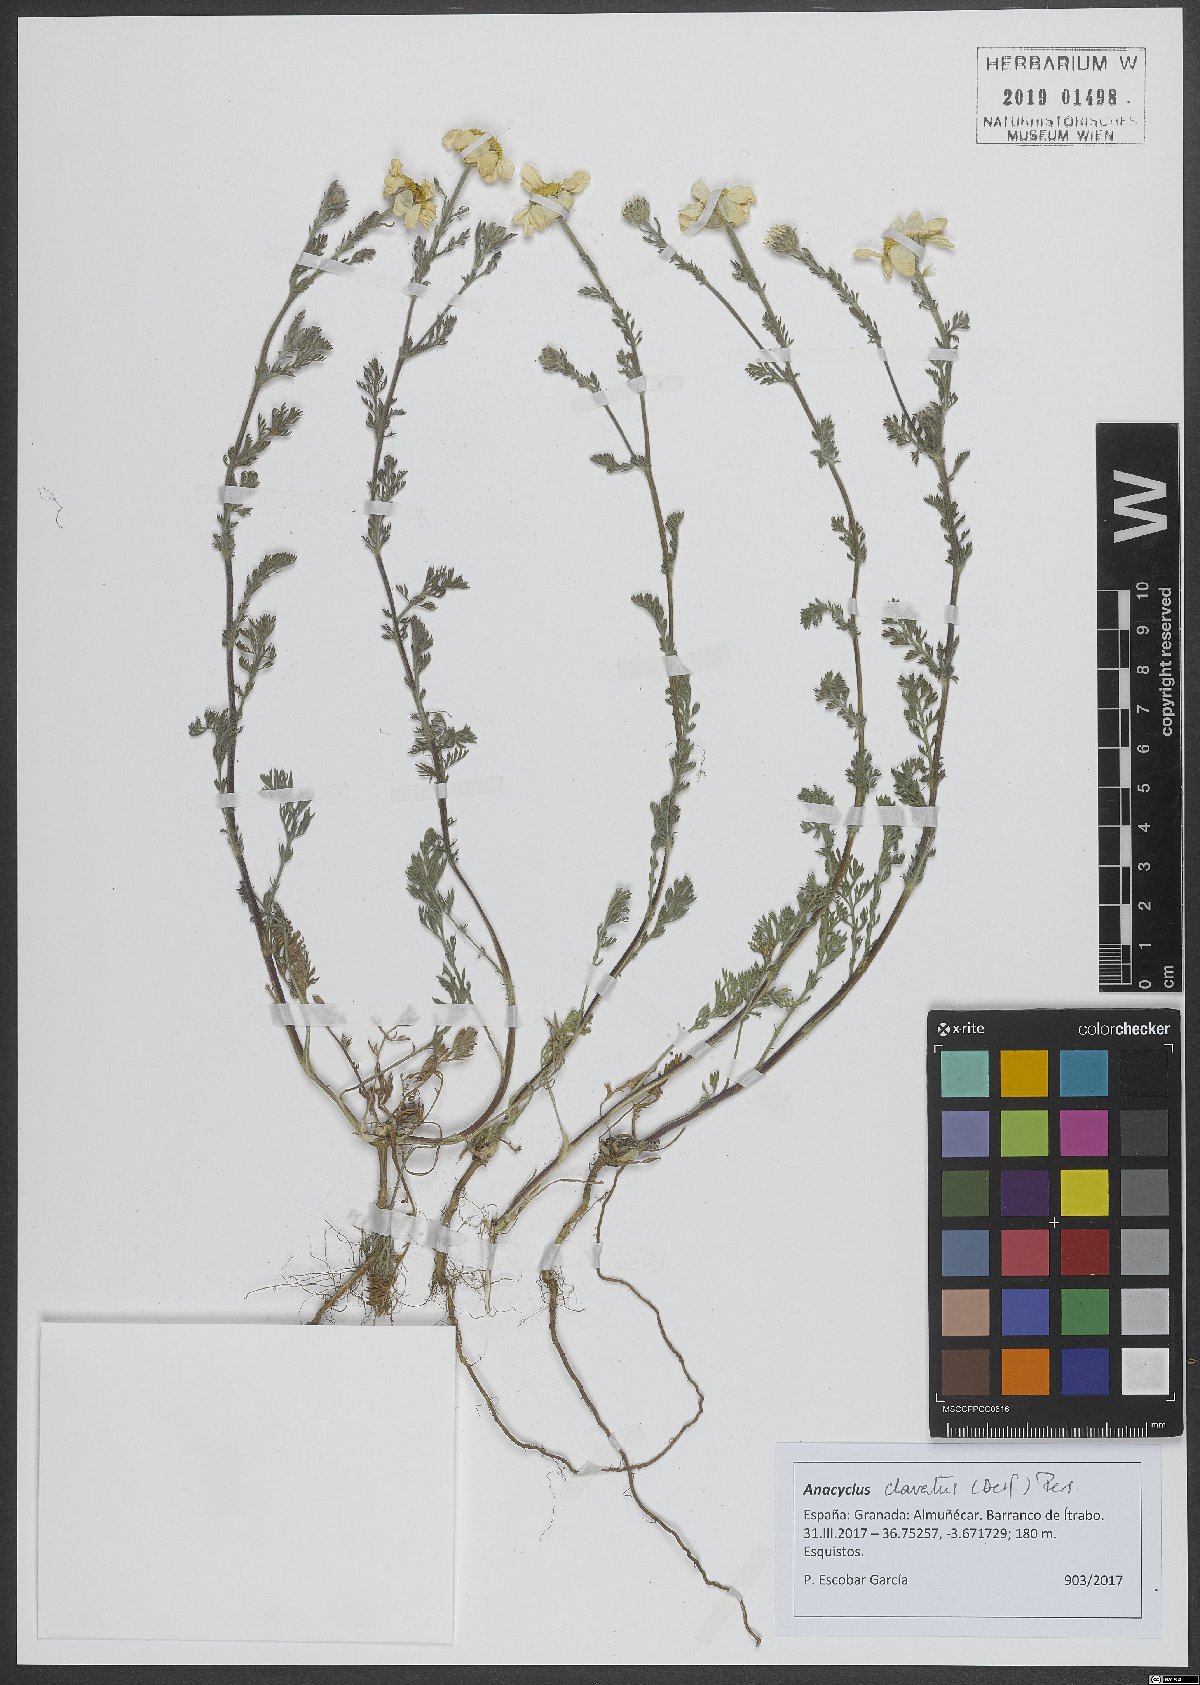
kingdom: Plantae
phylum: Tracheophyta
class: Magnoliopsida
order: Asterales
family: Asteraceae
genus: Anacyclus
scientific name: Anacyclus clavatus
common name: Whitebuttons
